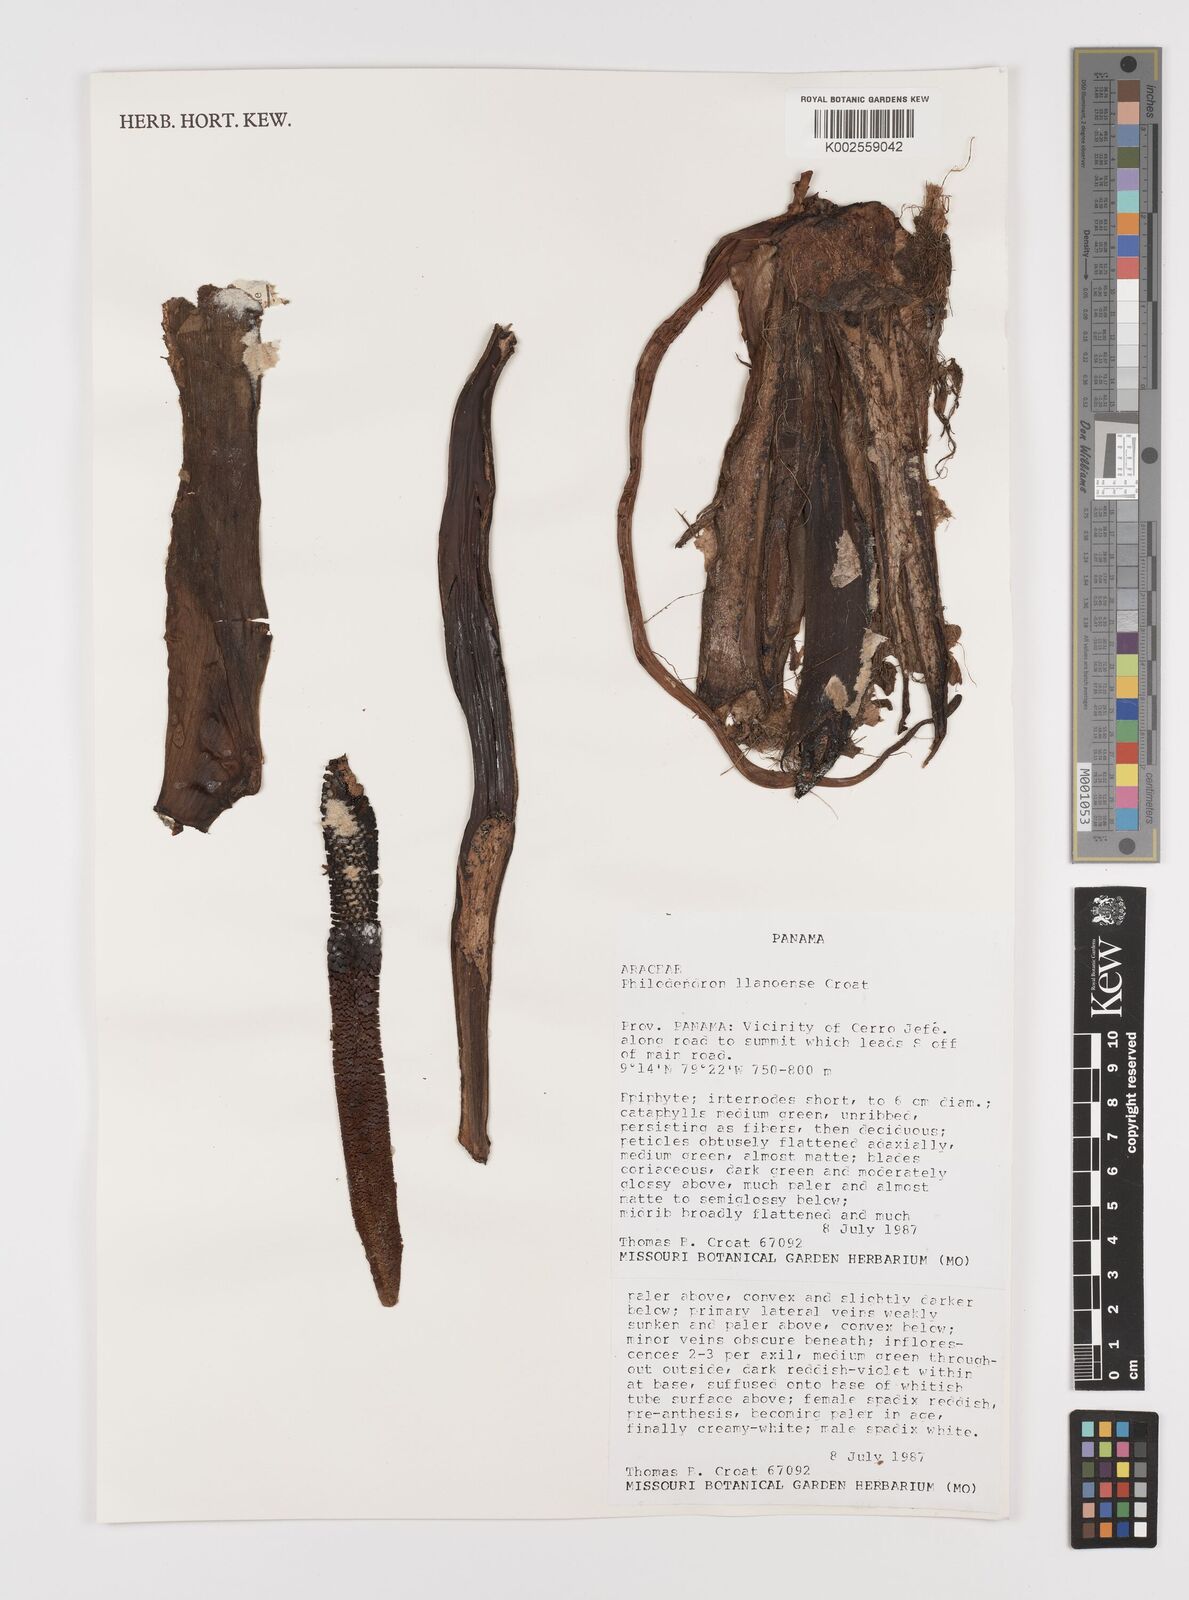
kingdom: Plantae
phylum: Tracheophyta
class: Liliopsida
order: Alismatales
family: Araceae
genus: Philodendron
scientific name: Philodendron llanense
